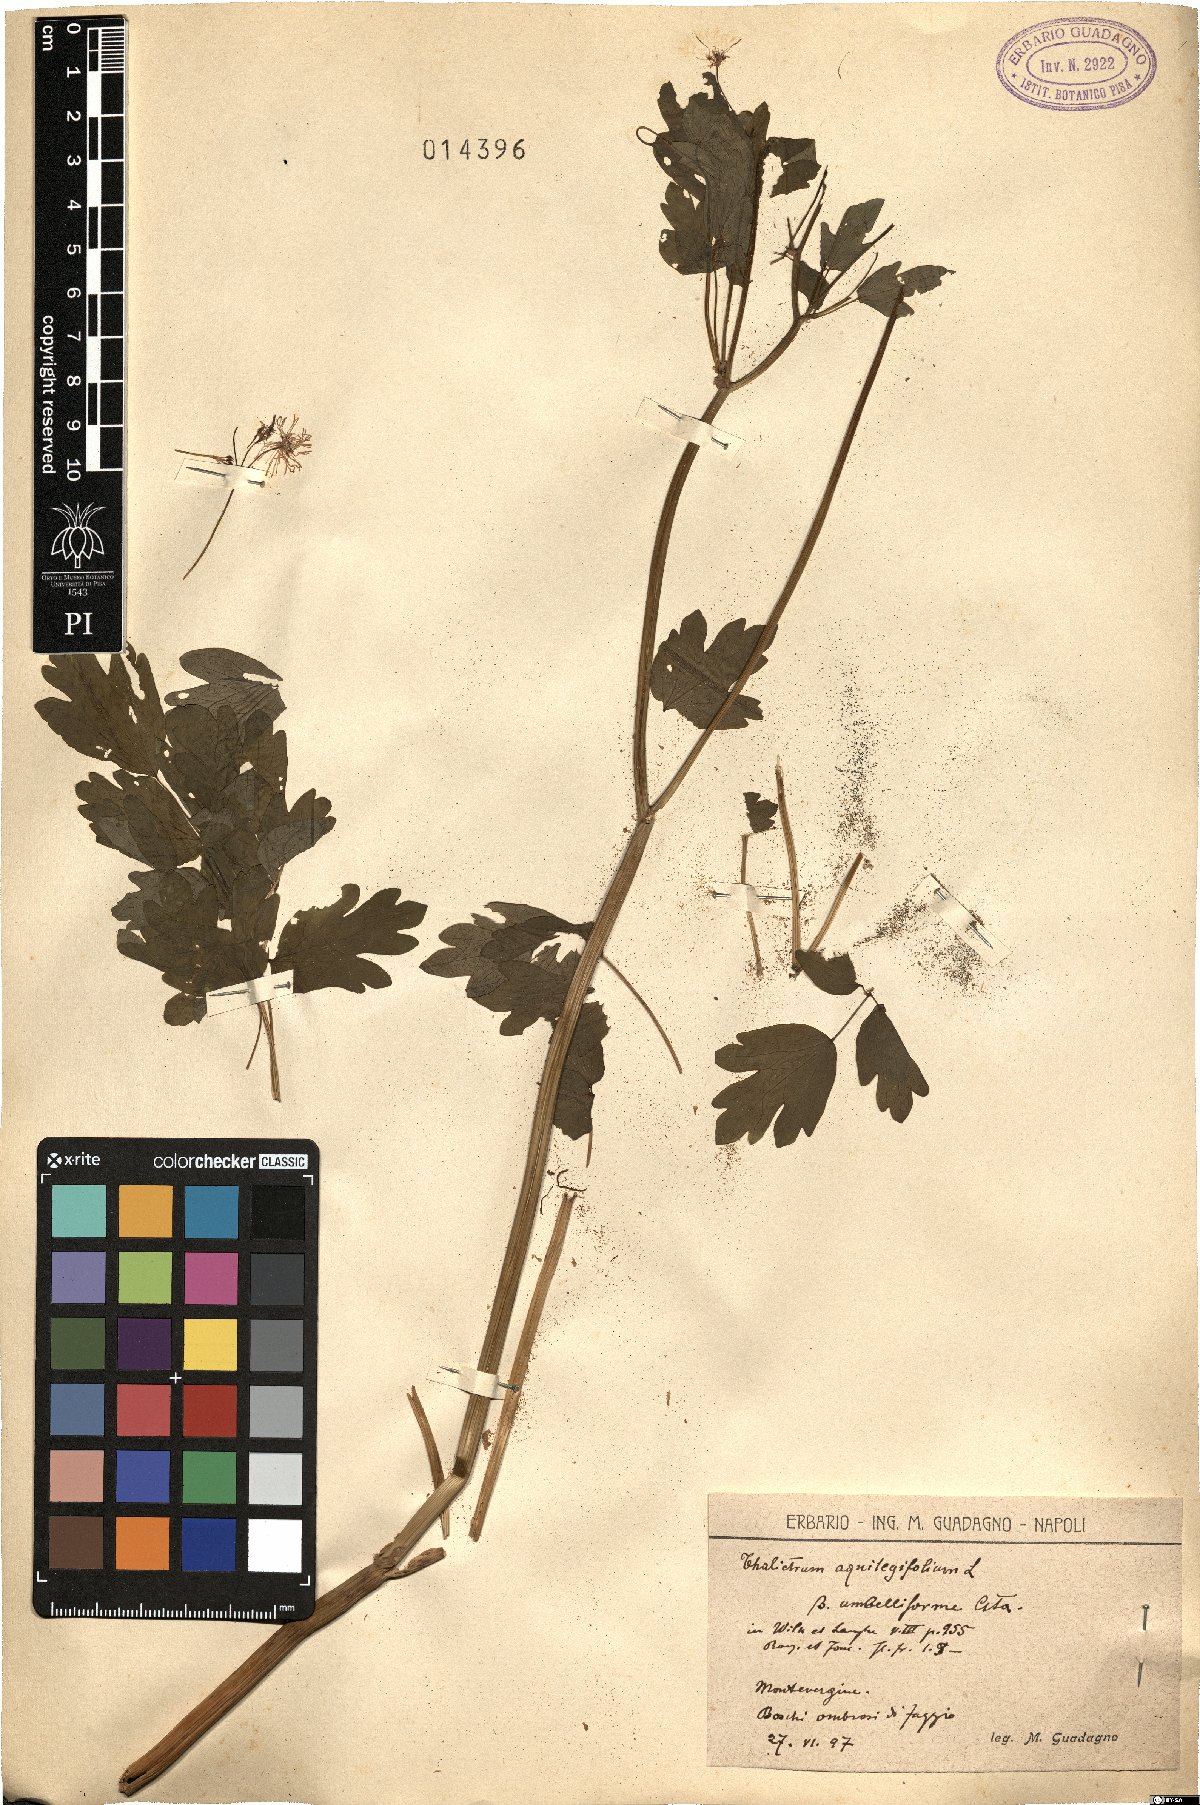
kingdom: Plantae
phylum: Tracheophyta
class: Magnoliopsida
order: Ranunculales
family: Ranunculaceae
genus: Thalictrum
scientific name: Thalictrum aquilegiifolium
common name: French meadow-rue
